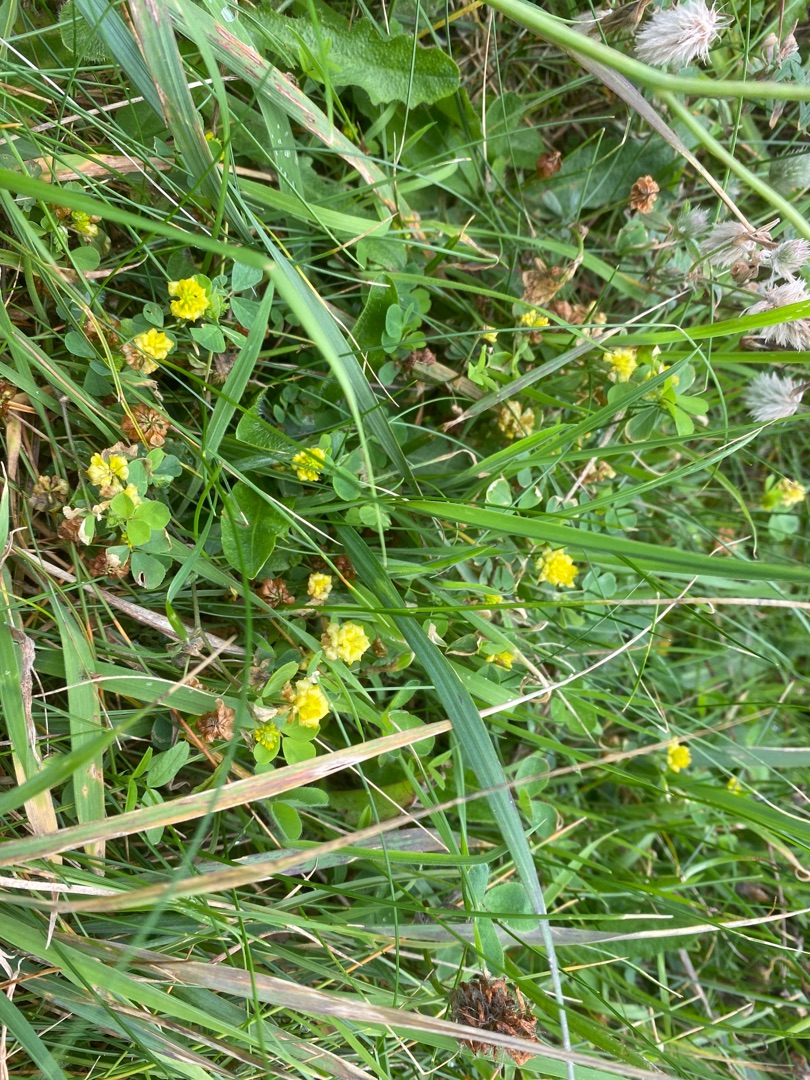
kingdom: Plantae
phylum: Tracheophyta
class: Magnoliopsida
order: Fabales
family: Fabaceae
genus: Trifolium
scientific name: Trifolium campestre
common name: Gul kløver
